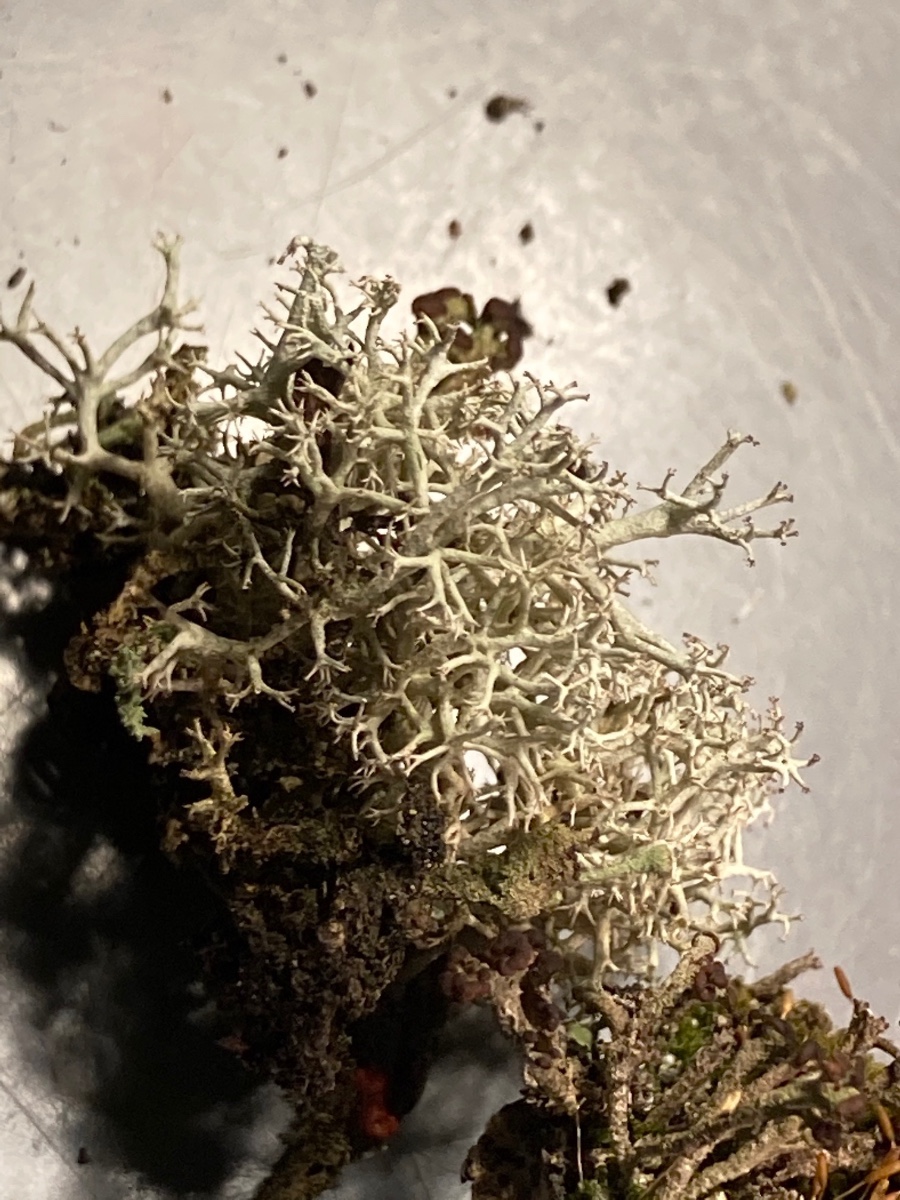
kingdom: Fungi
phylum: Ascomycota
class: Lecanoromycetes
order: Lecanorales
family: Cladoniaceae
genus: Cladonia
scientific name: Cladonia portentosa
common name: hede-rensdyrlav
